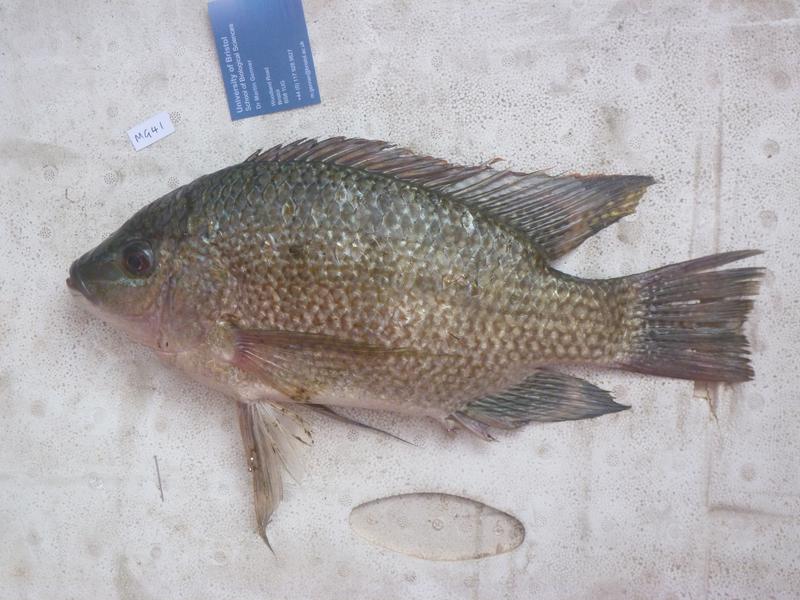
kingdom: Animalia
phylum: Chordata
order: Perciformes
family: Cichlidae
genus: Oreochromis
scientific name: Oreochromis tanganicae
